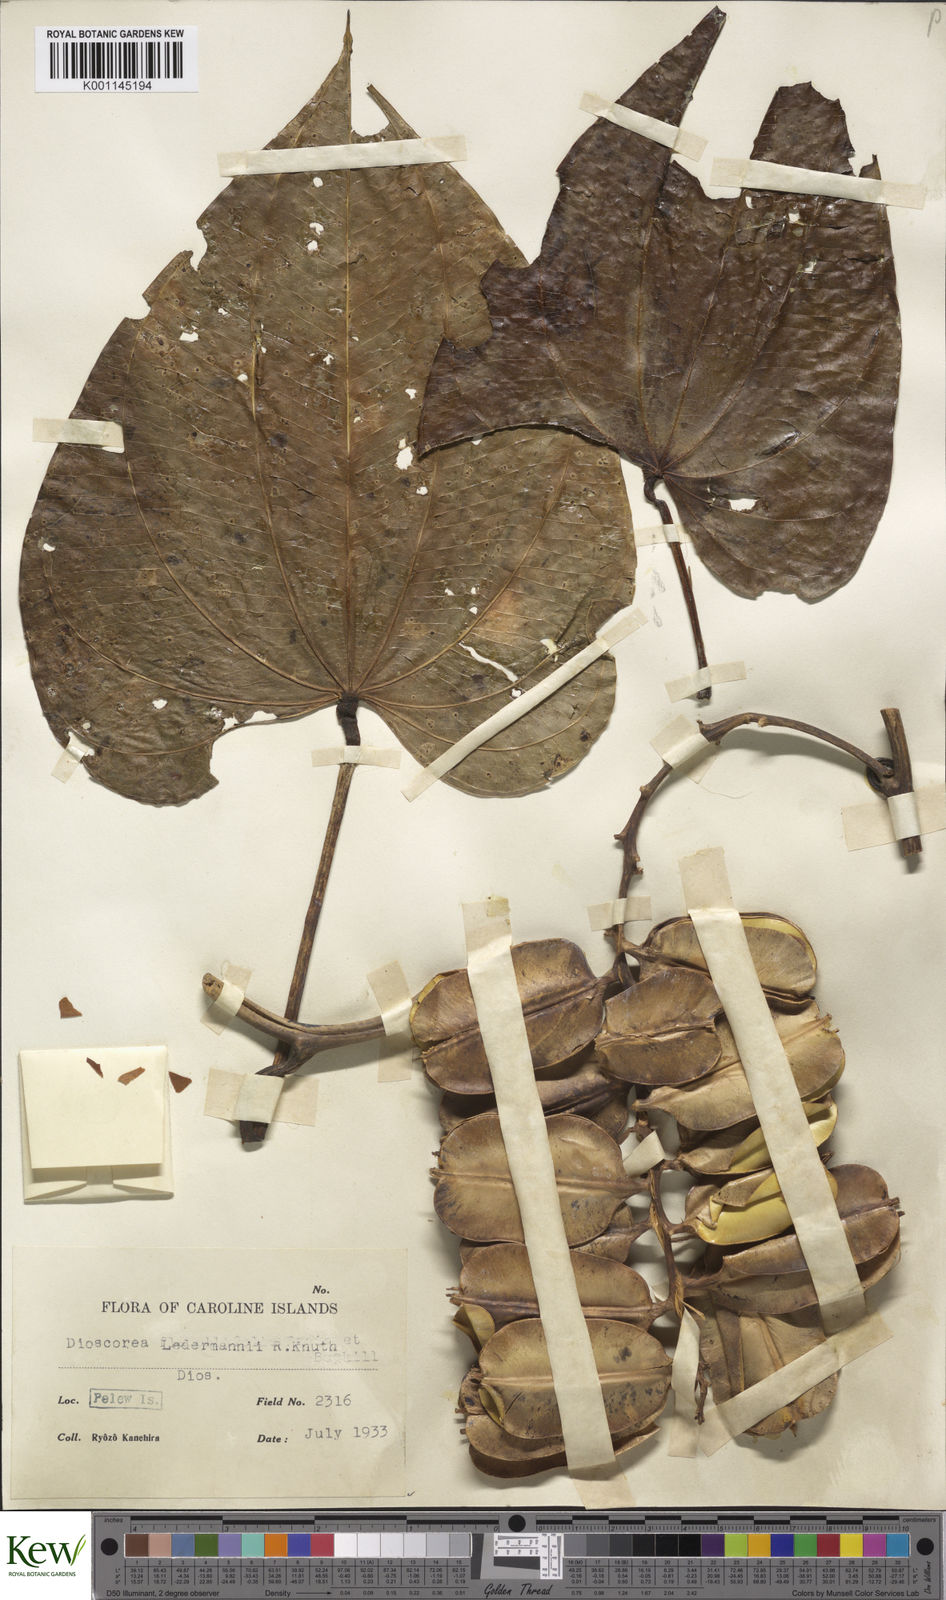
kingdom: Plantae
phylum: Tracheophyta
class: Liliopsida
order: Dioscoreales
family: Dioscoreaceae
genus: Dioscorea
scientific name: Dioscorea
